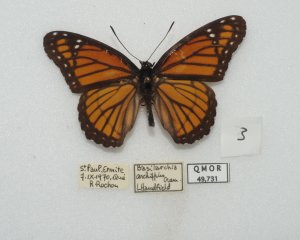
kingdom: Animalia
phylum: Arthropoda
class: Insecta
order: Lepidoptera
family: Nymphalidae
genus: Limenitis
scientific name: Limenitis archippus
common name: Viceroy
